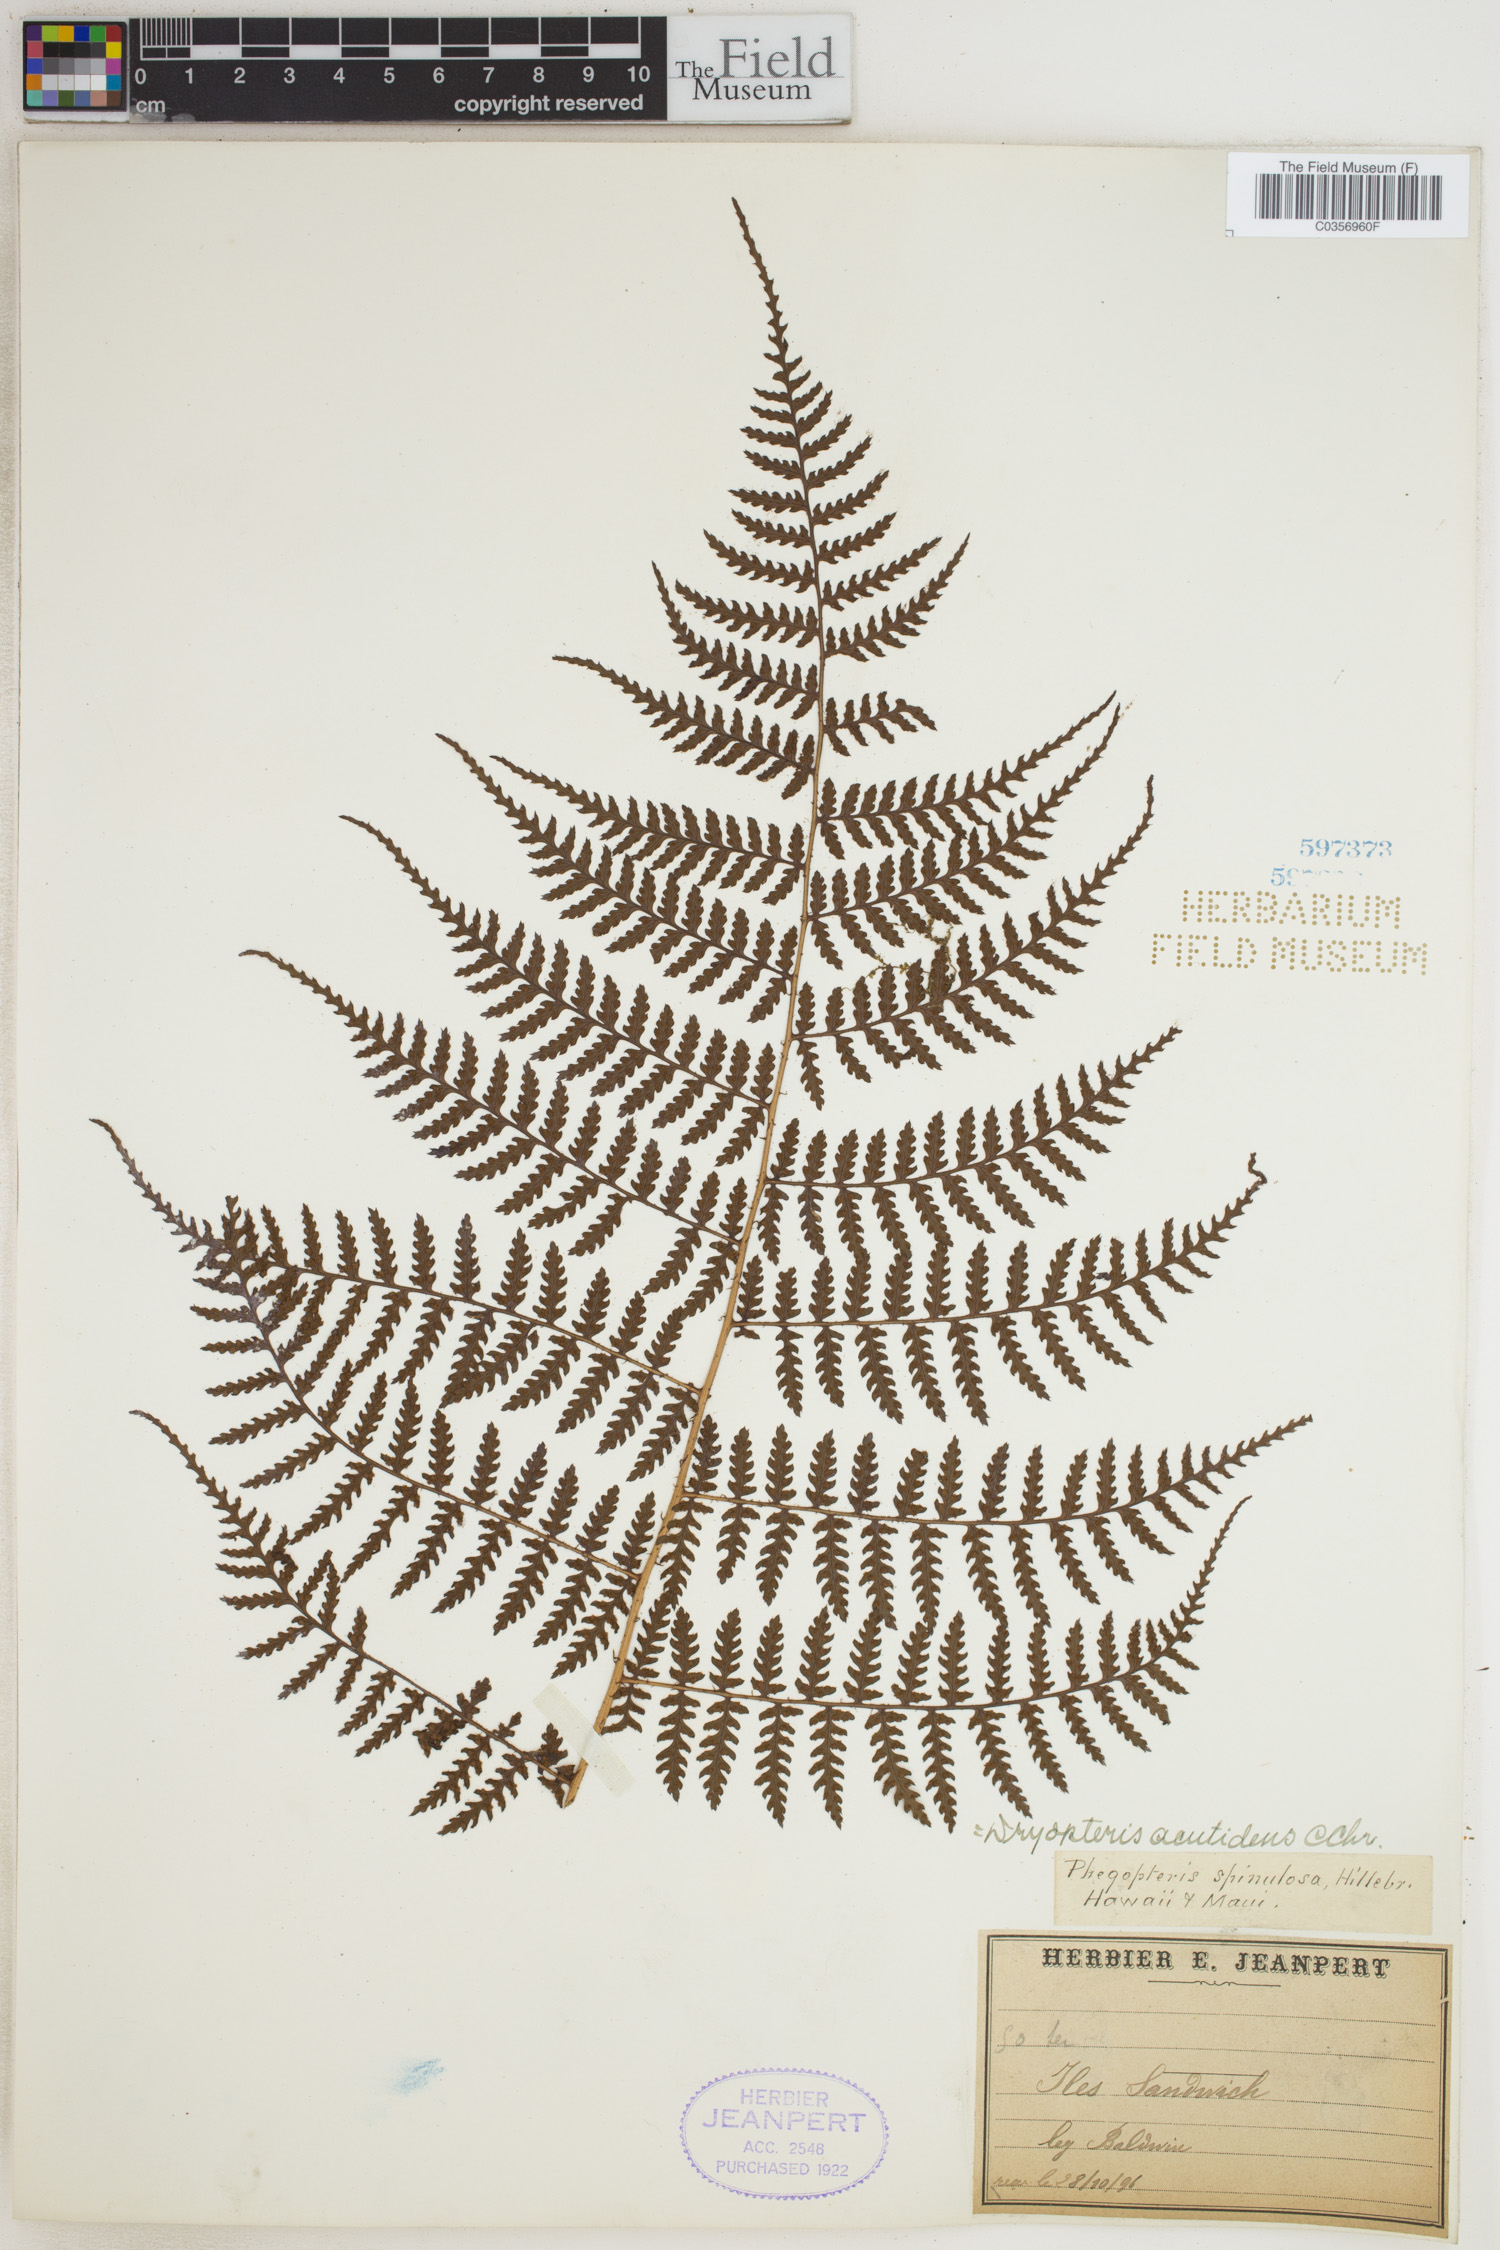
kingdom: Plantae
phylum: Tracheophyta
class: Polypodiopsida
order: Polypodiales
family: Dryopteridaceae
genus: Dryopteris
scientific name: Dryopteris unidentata
